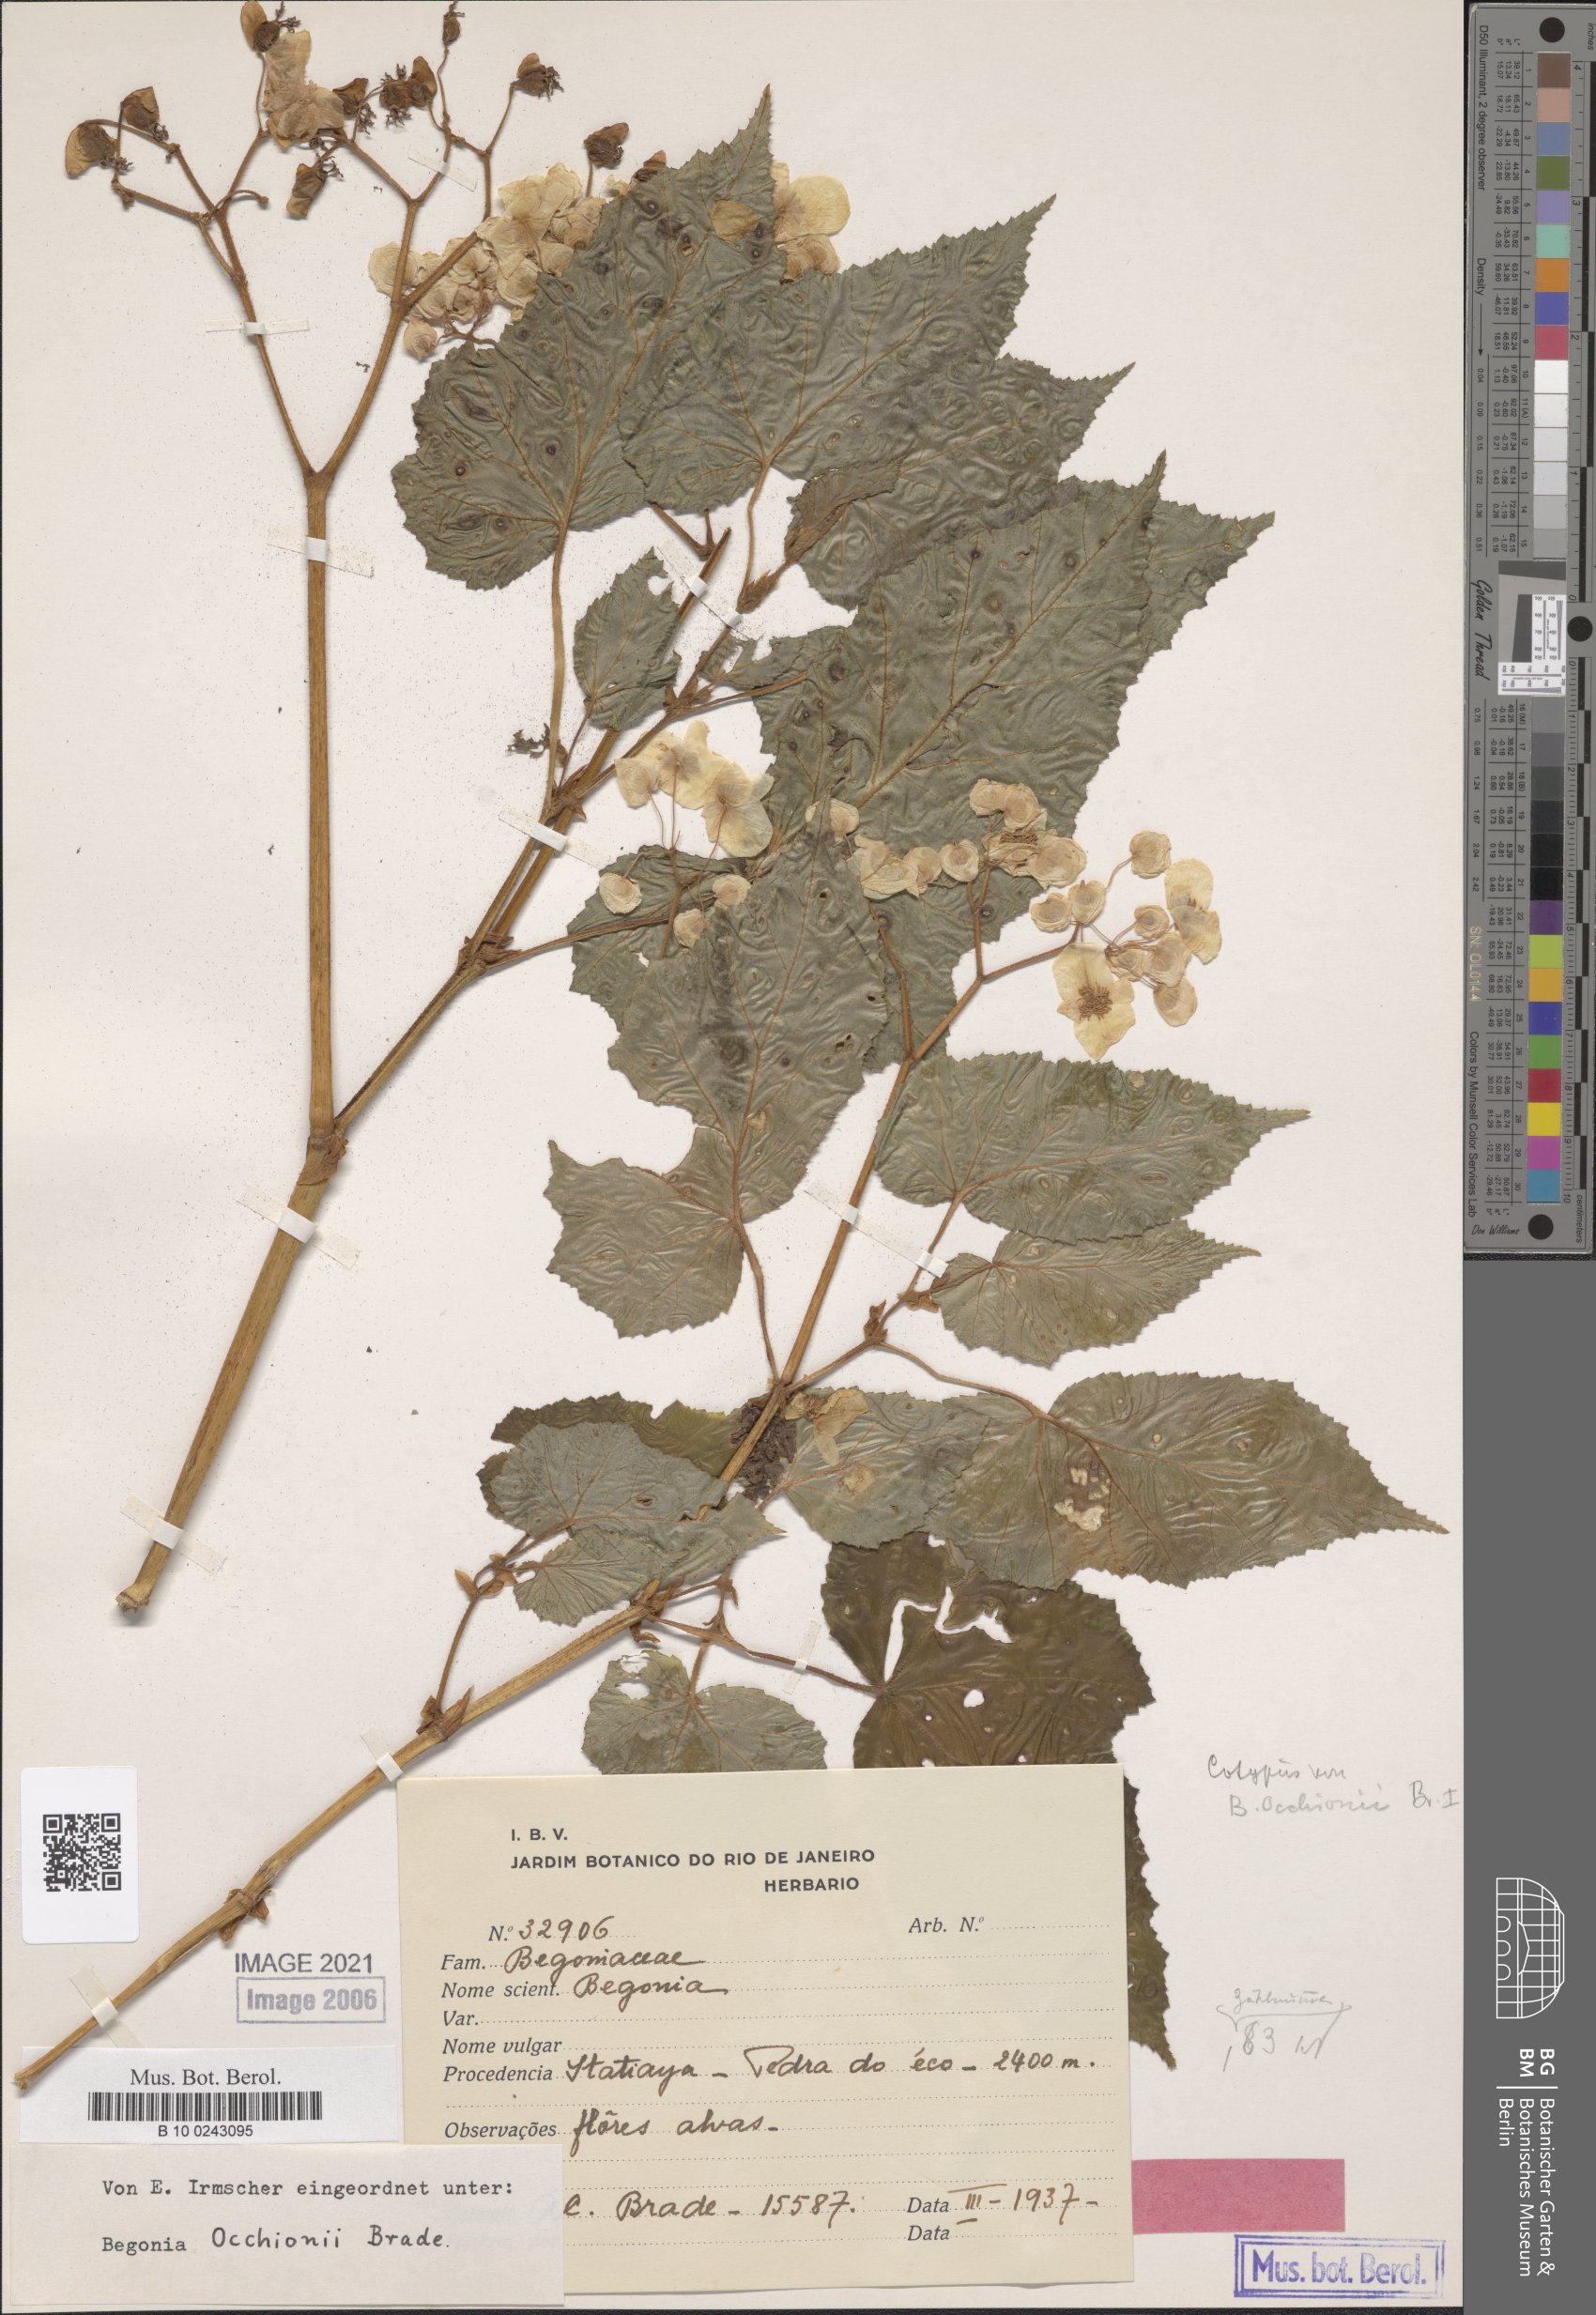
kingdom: Plantae
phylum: Tracheophyta
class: Magnoliopsida
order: Cucurbitales
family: Begoniaceae
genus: Begonia
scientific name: Begonia occhionii
